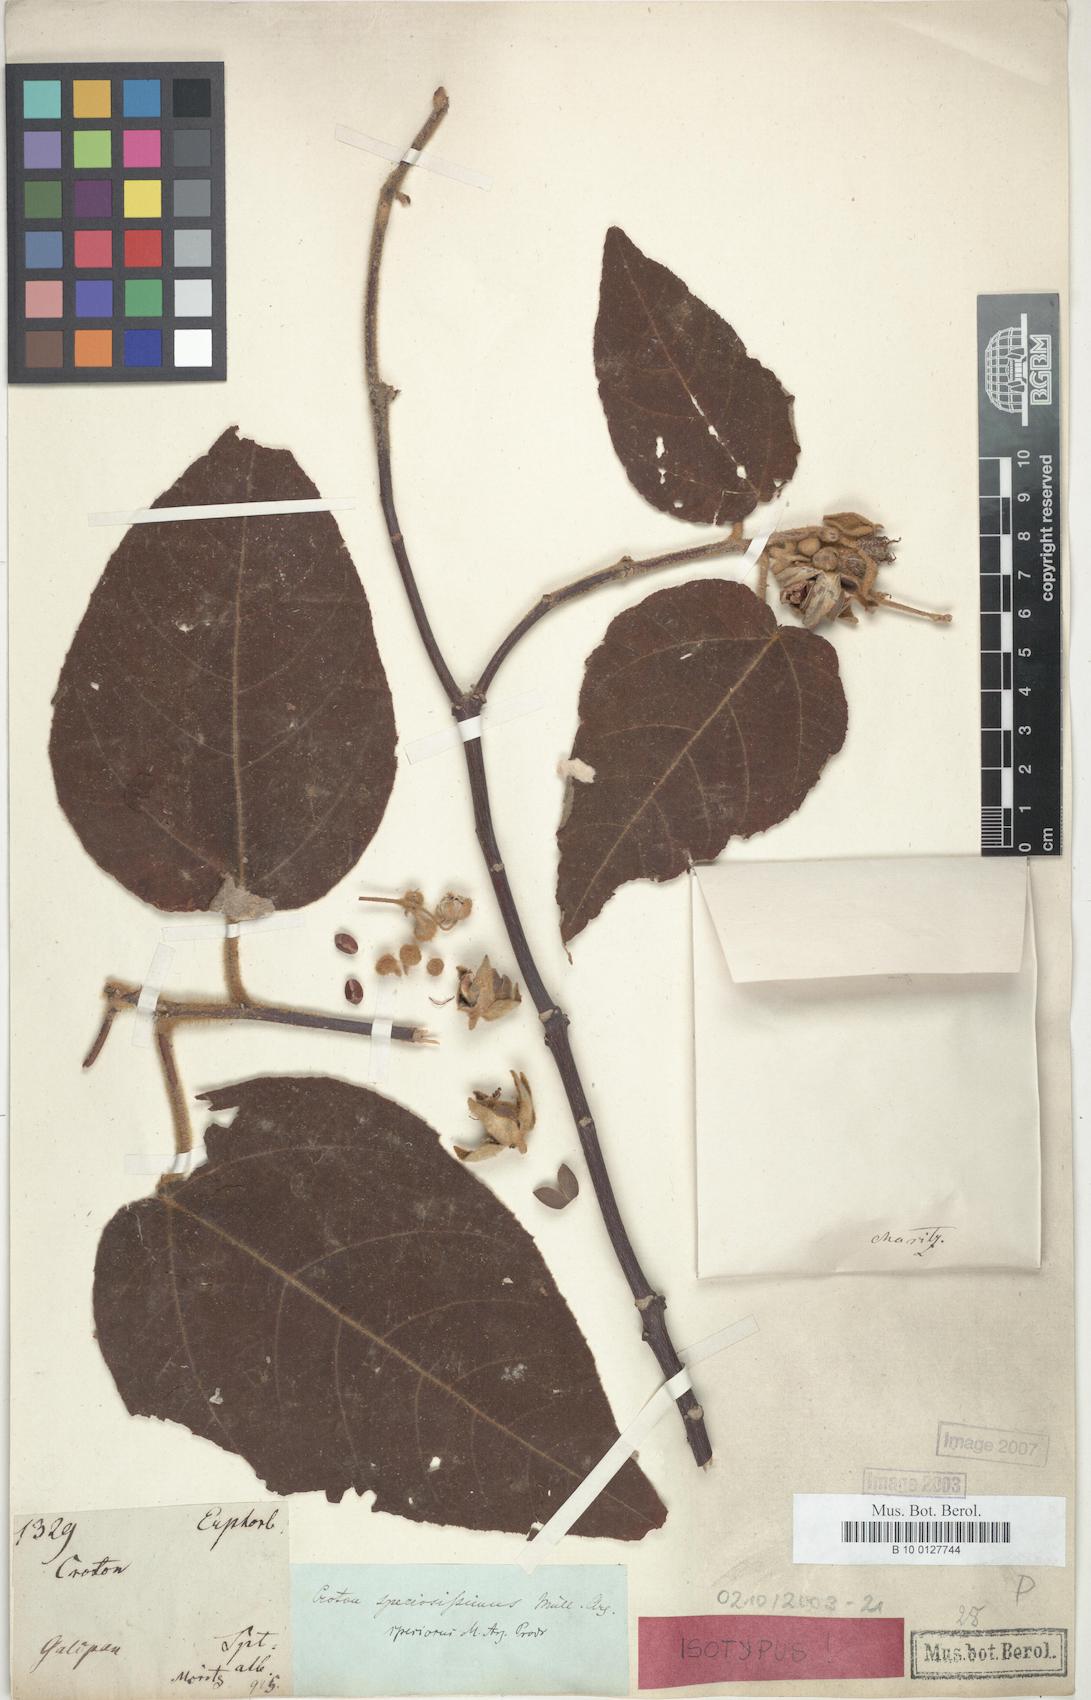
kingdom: Plantae
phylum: Tracheophyta
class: Magnoliopsida
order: Malpighiales
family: Euphorbiaceae
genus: Croton
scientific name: Croton speciosus
